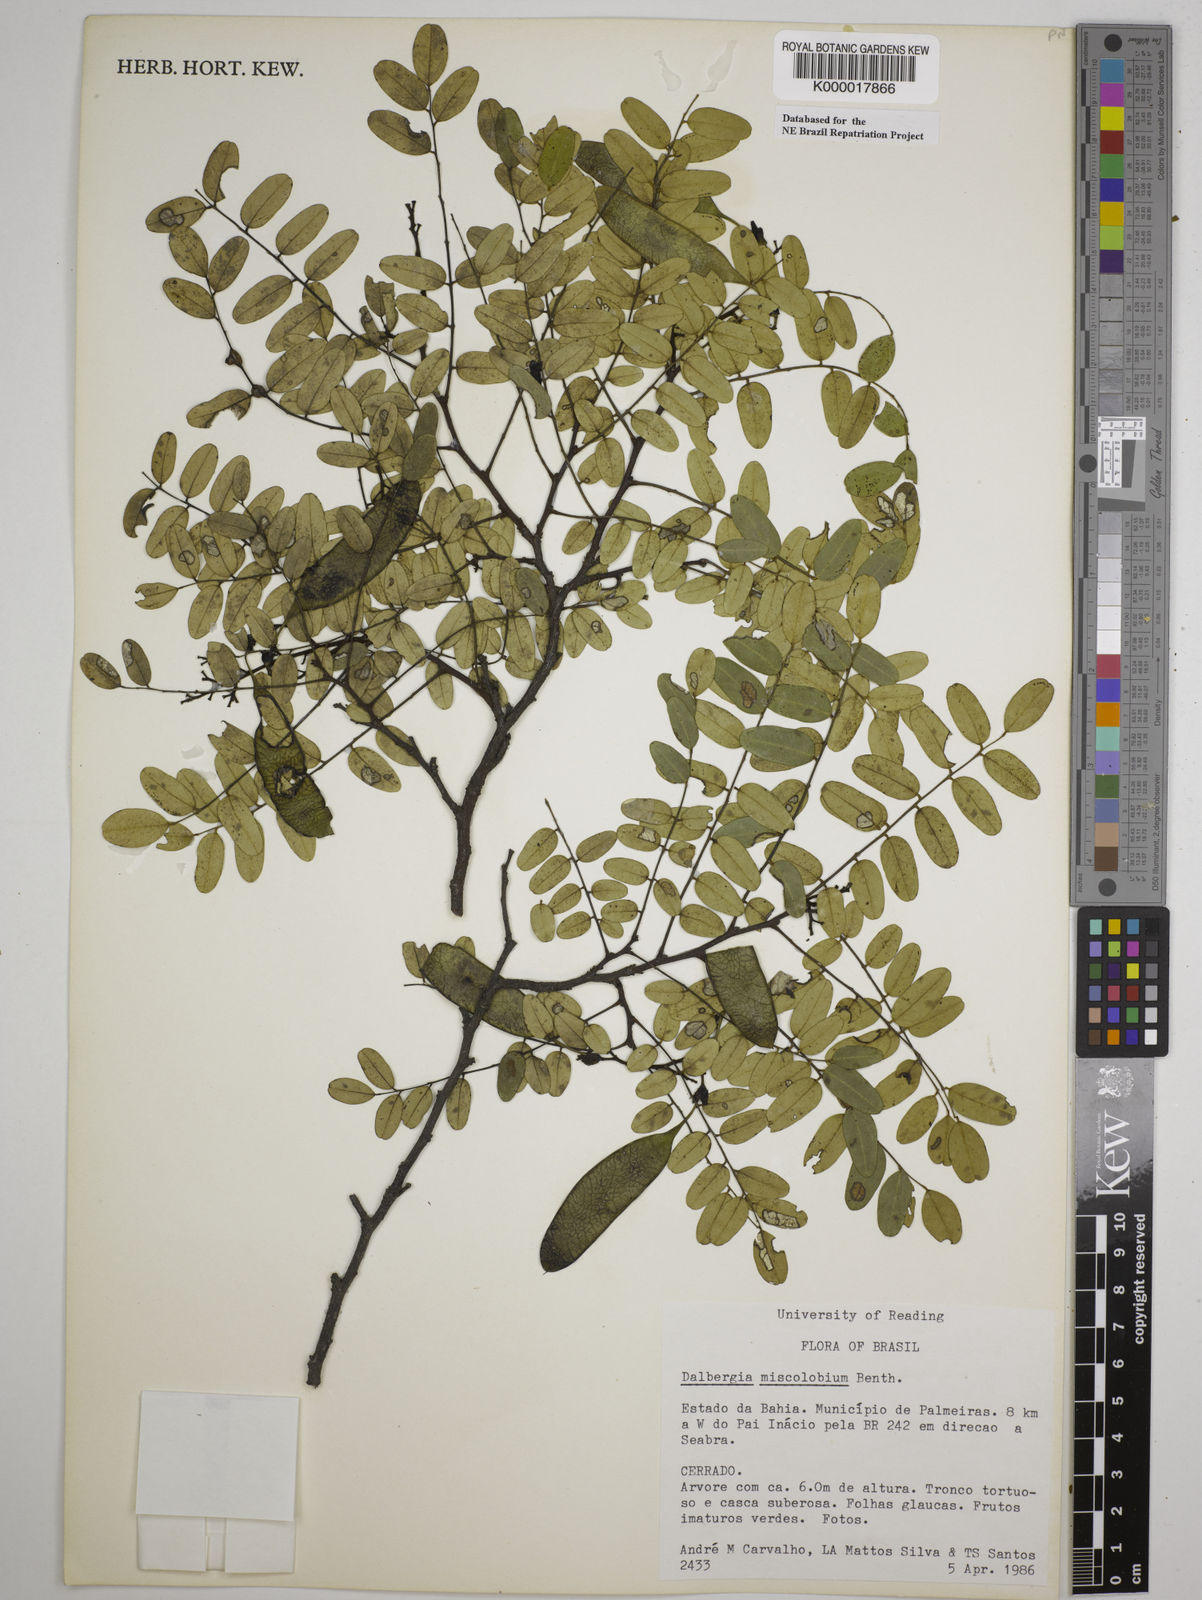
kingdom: Plantae
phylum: Tracheophyta
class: Magnoliopsida
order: Fabales
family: Fabaceae
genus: Dalbergia
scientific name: Dalbergia miscolobium
